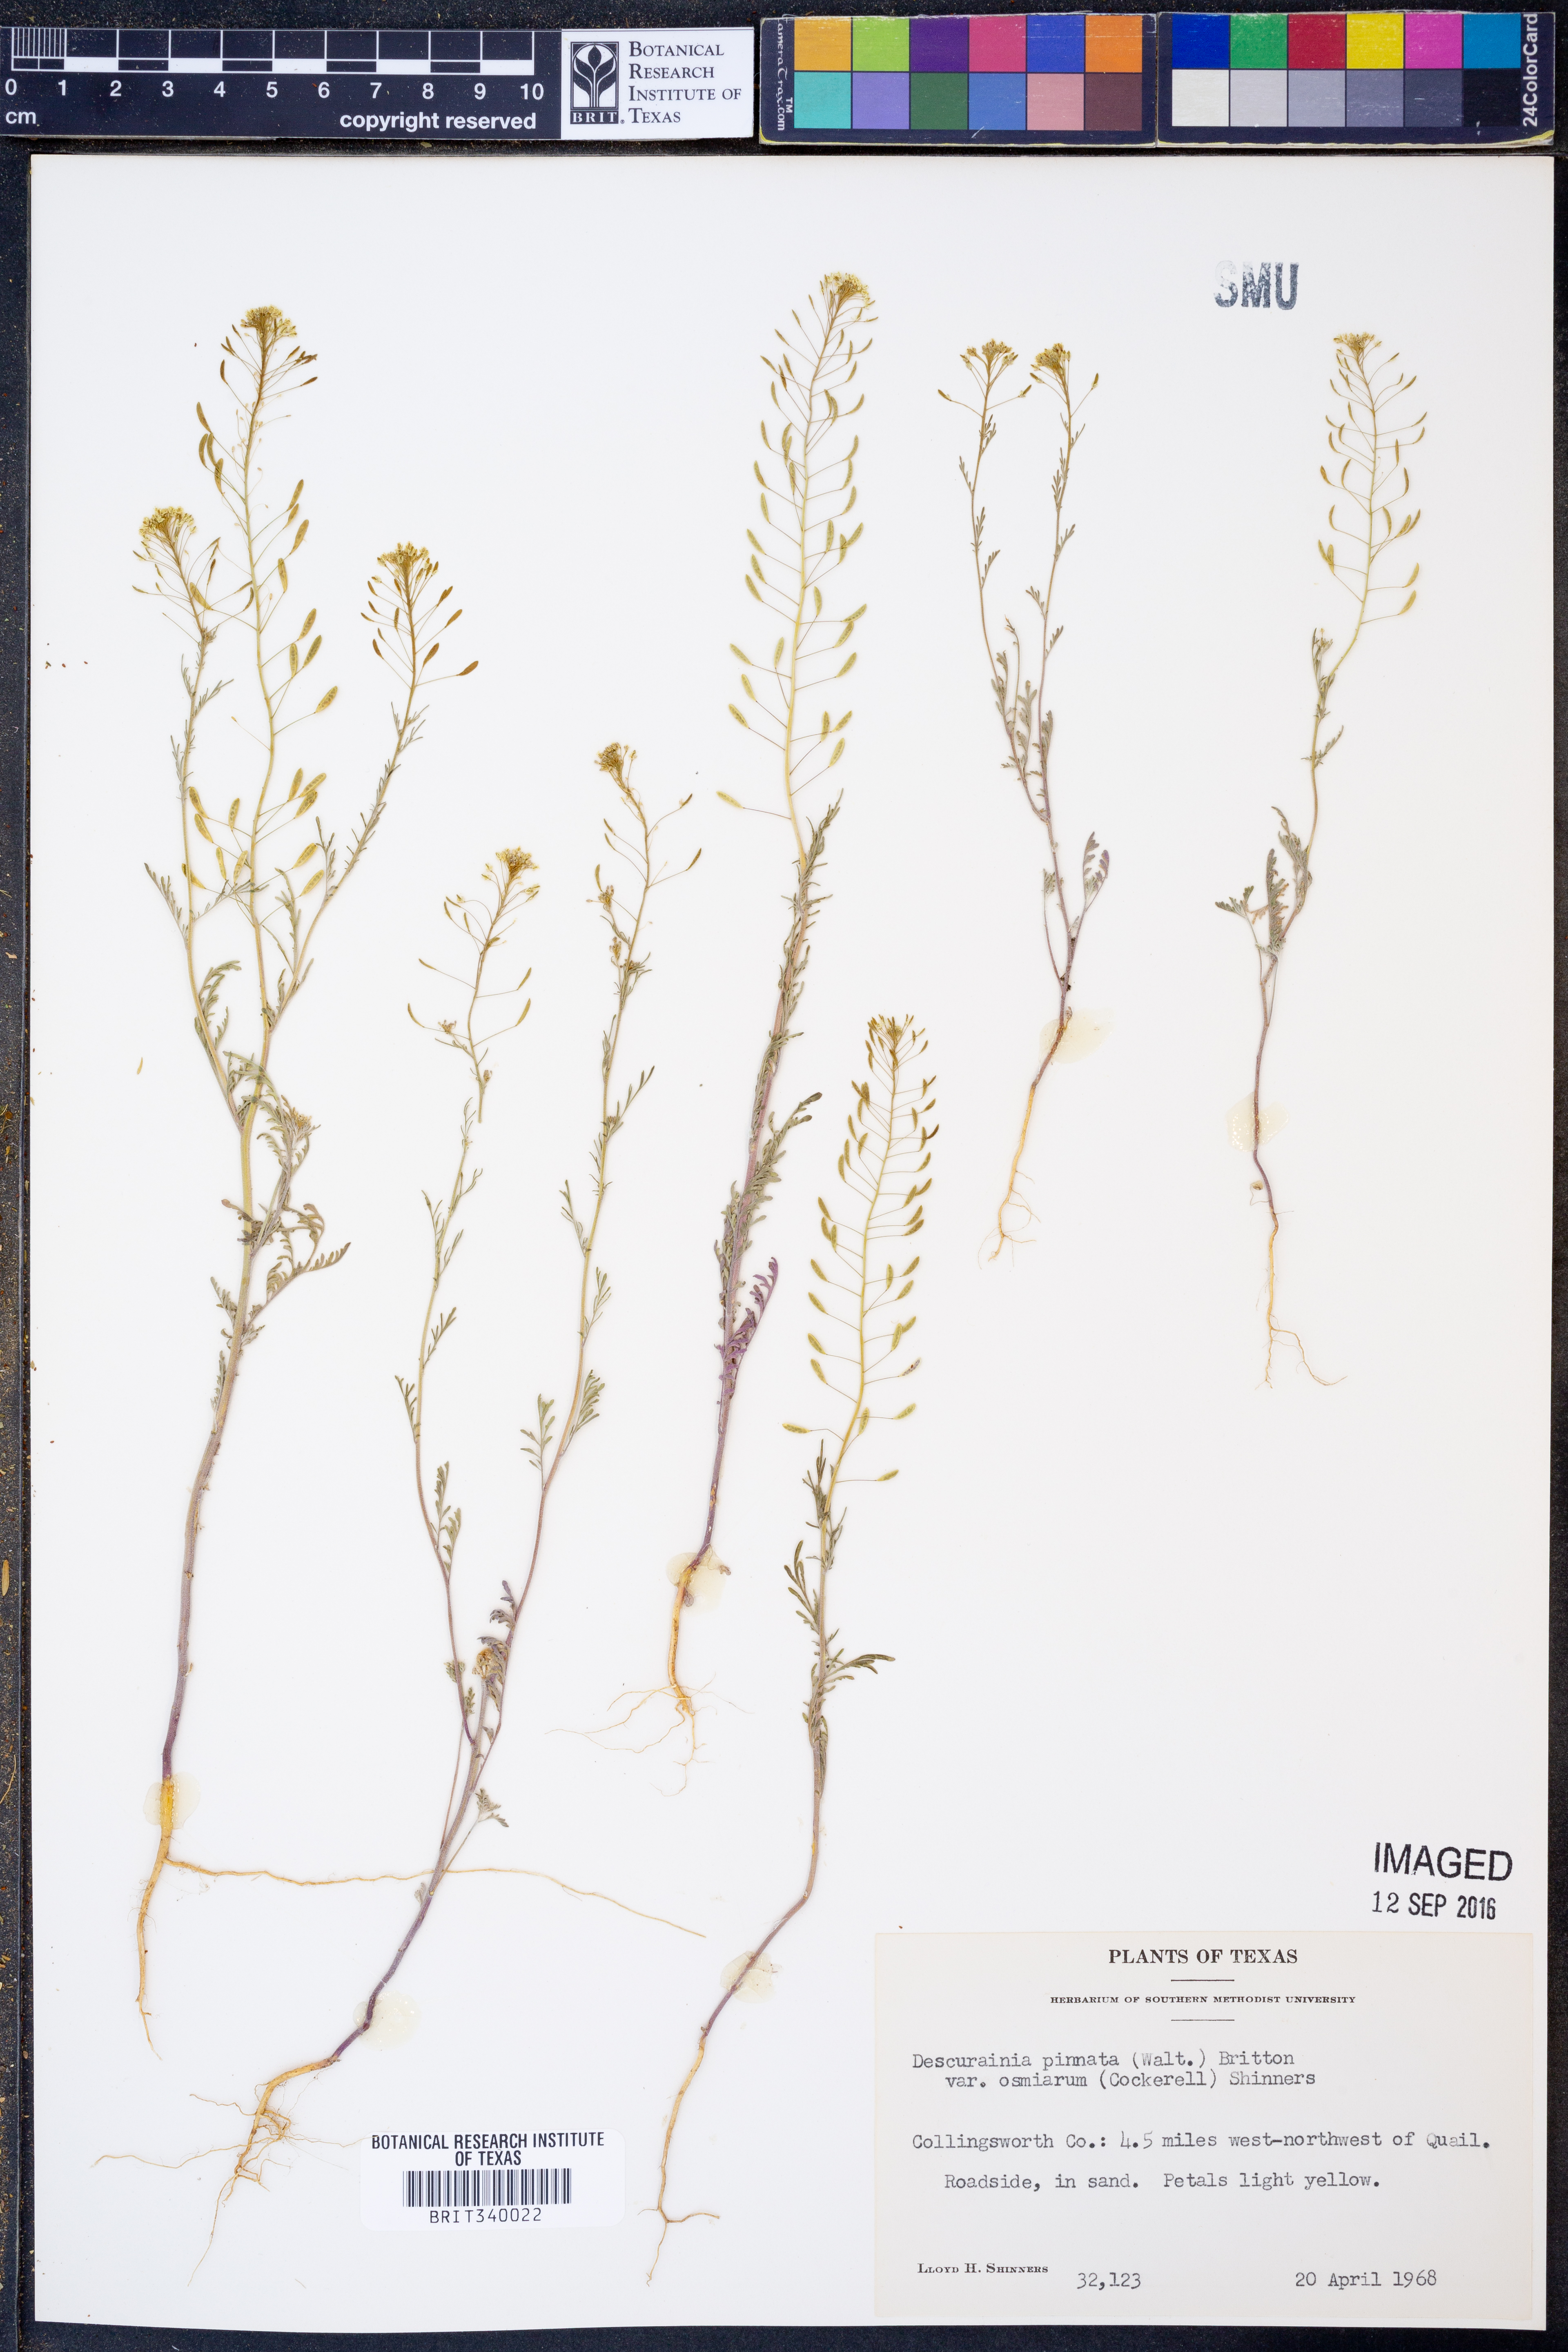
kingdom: Plantae
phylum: Tracheophyta
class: Magnoliopsida
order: Brassicales
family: Brassicaceae
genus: Descurainia
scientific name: Descurainia pinnata
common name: Western tansy mustard
